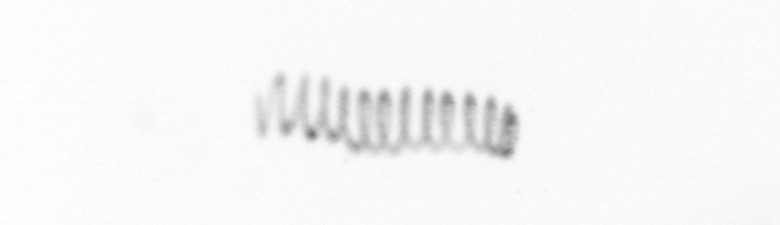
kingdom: Chromista
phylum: Ochrophyta
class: Bacillariophyceae
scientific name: Bacillariophyceae
